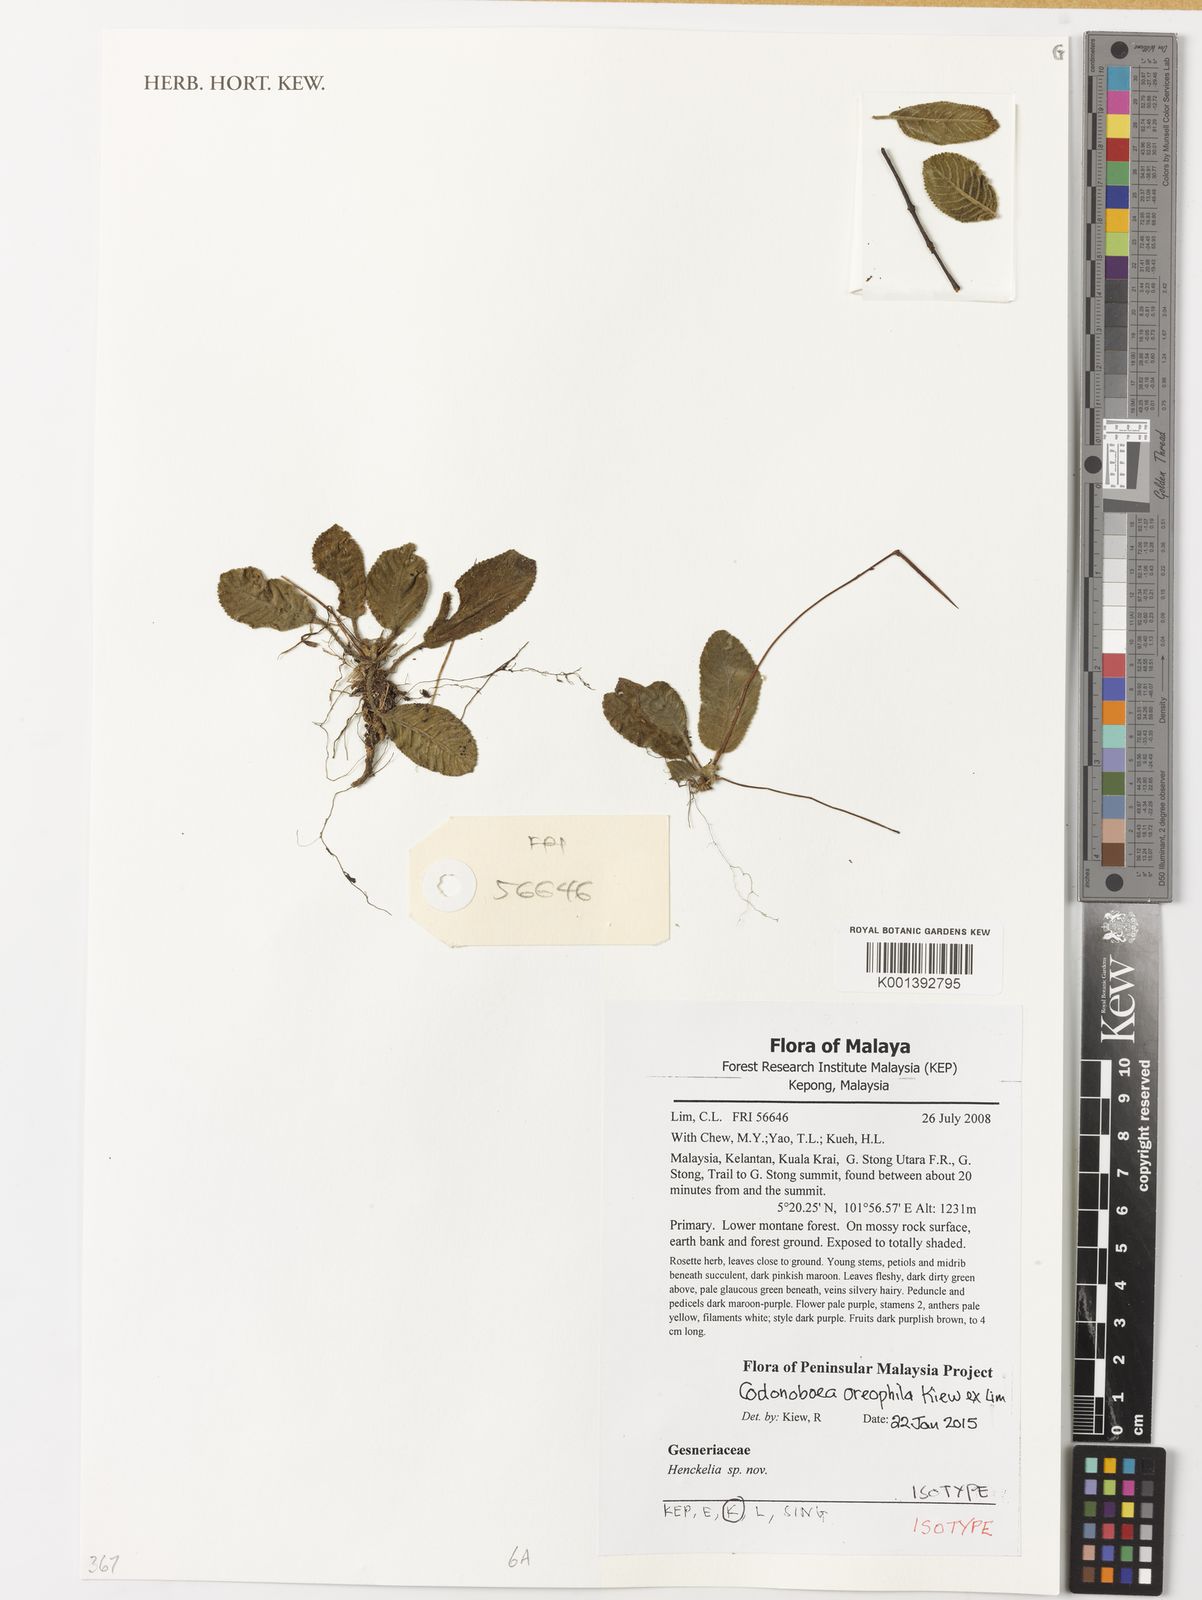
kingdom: Plantae
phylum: Tracheophyta
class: Magnoliopsida
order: Lamiales
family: Gesneriaceae
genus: Codonoboea
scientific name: Codonoboea oreophila
